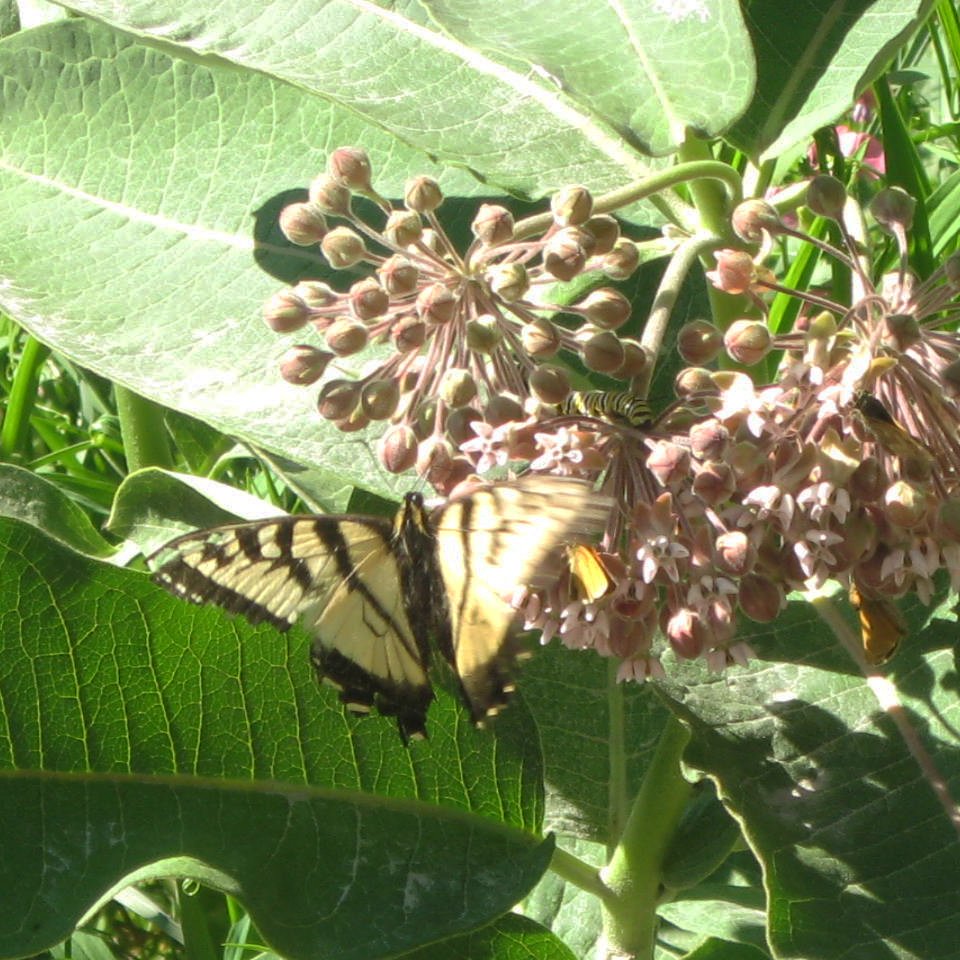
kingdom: Animalia
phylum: Arthropoda
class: Insecta
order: Lepidoptera
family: Papilionidae
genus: Pterourus
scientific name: Pterourus canadensis
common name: Canadian Tiger Swallowtail
